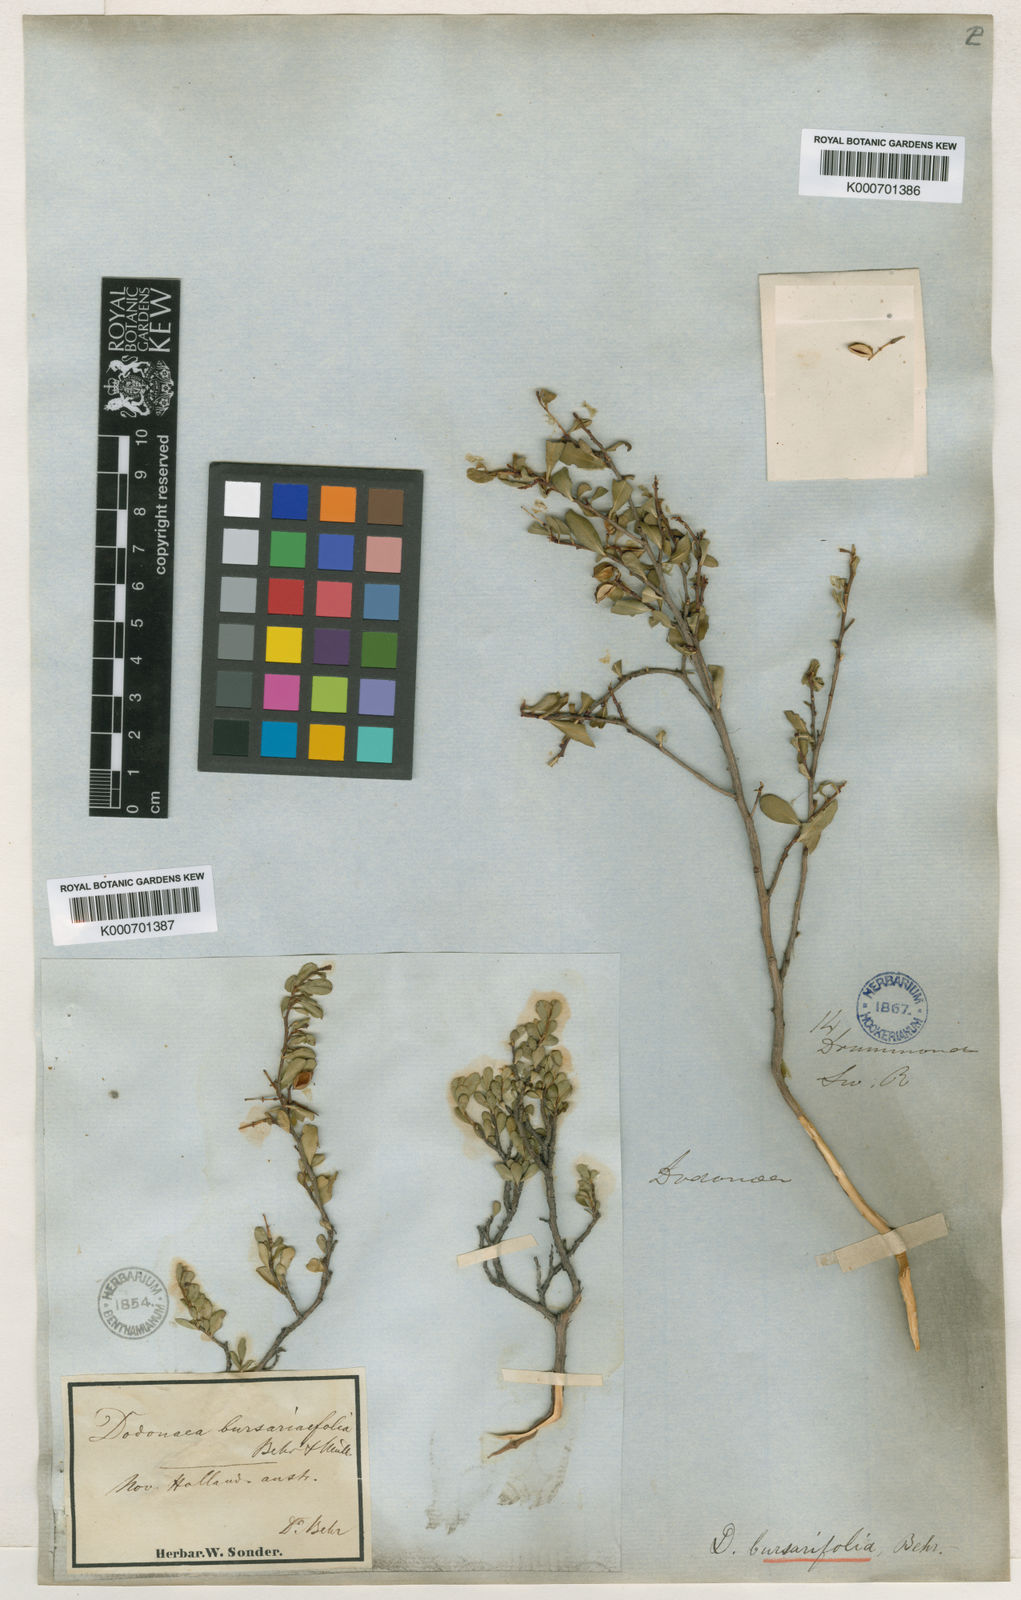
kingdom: Plantae
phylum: Tracheophyta
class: Magnoliopsida
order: Sapindales
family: Sapindaceae
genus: Dodonaea
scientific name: Dodonaea
